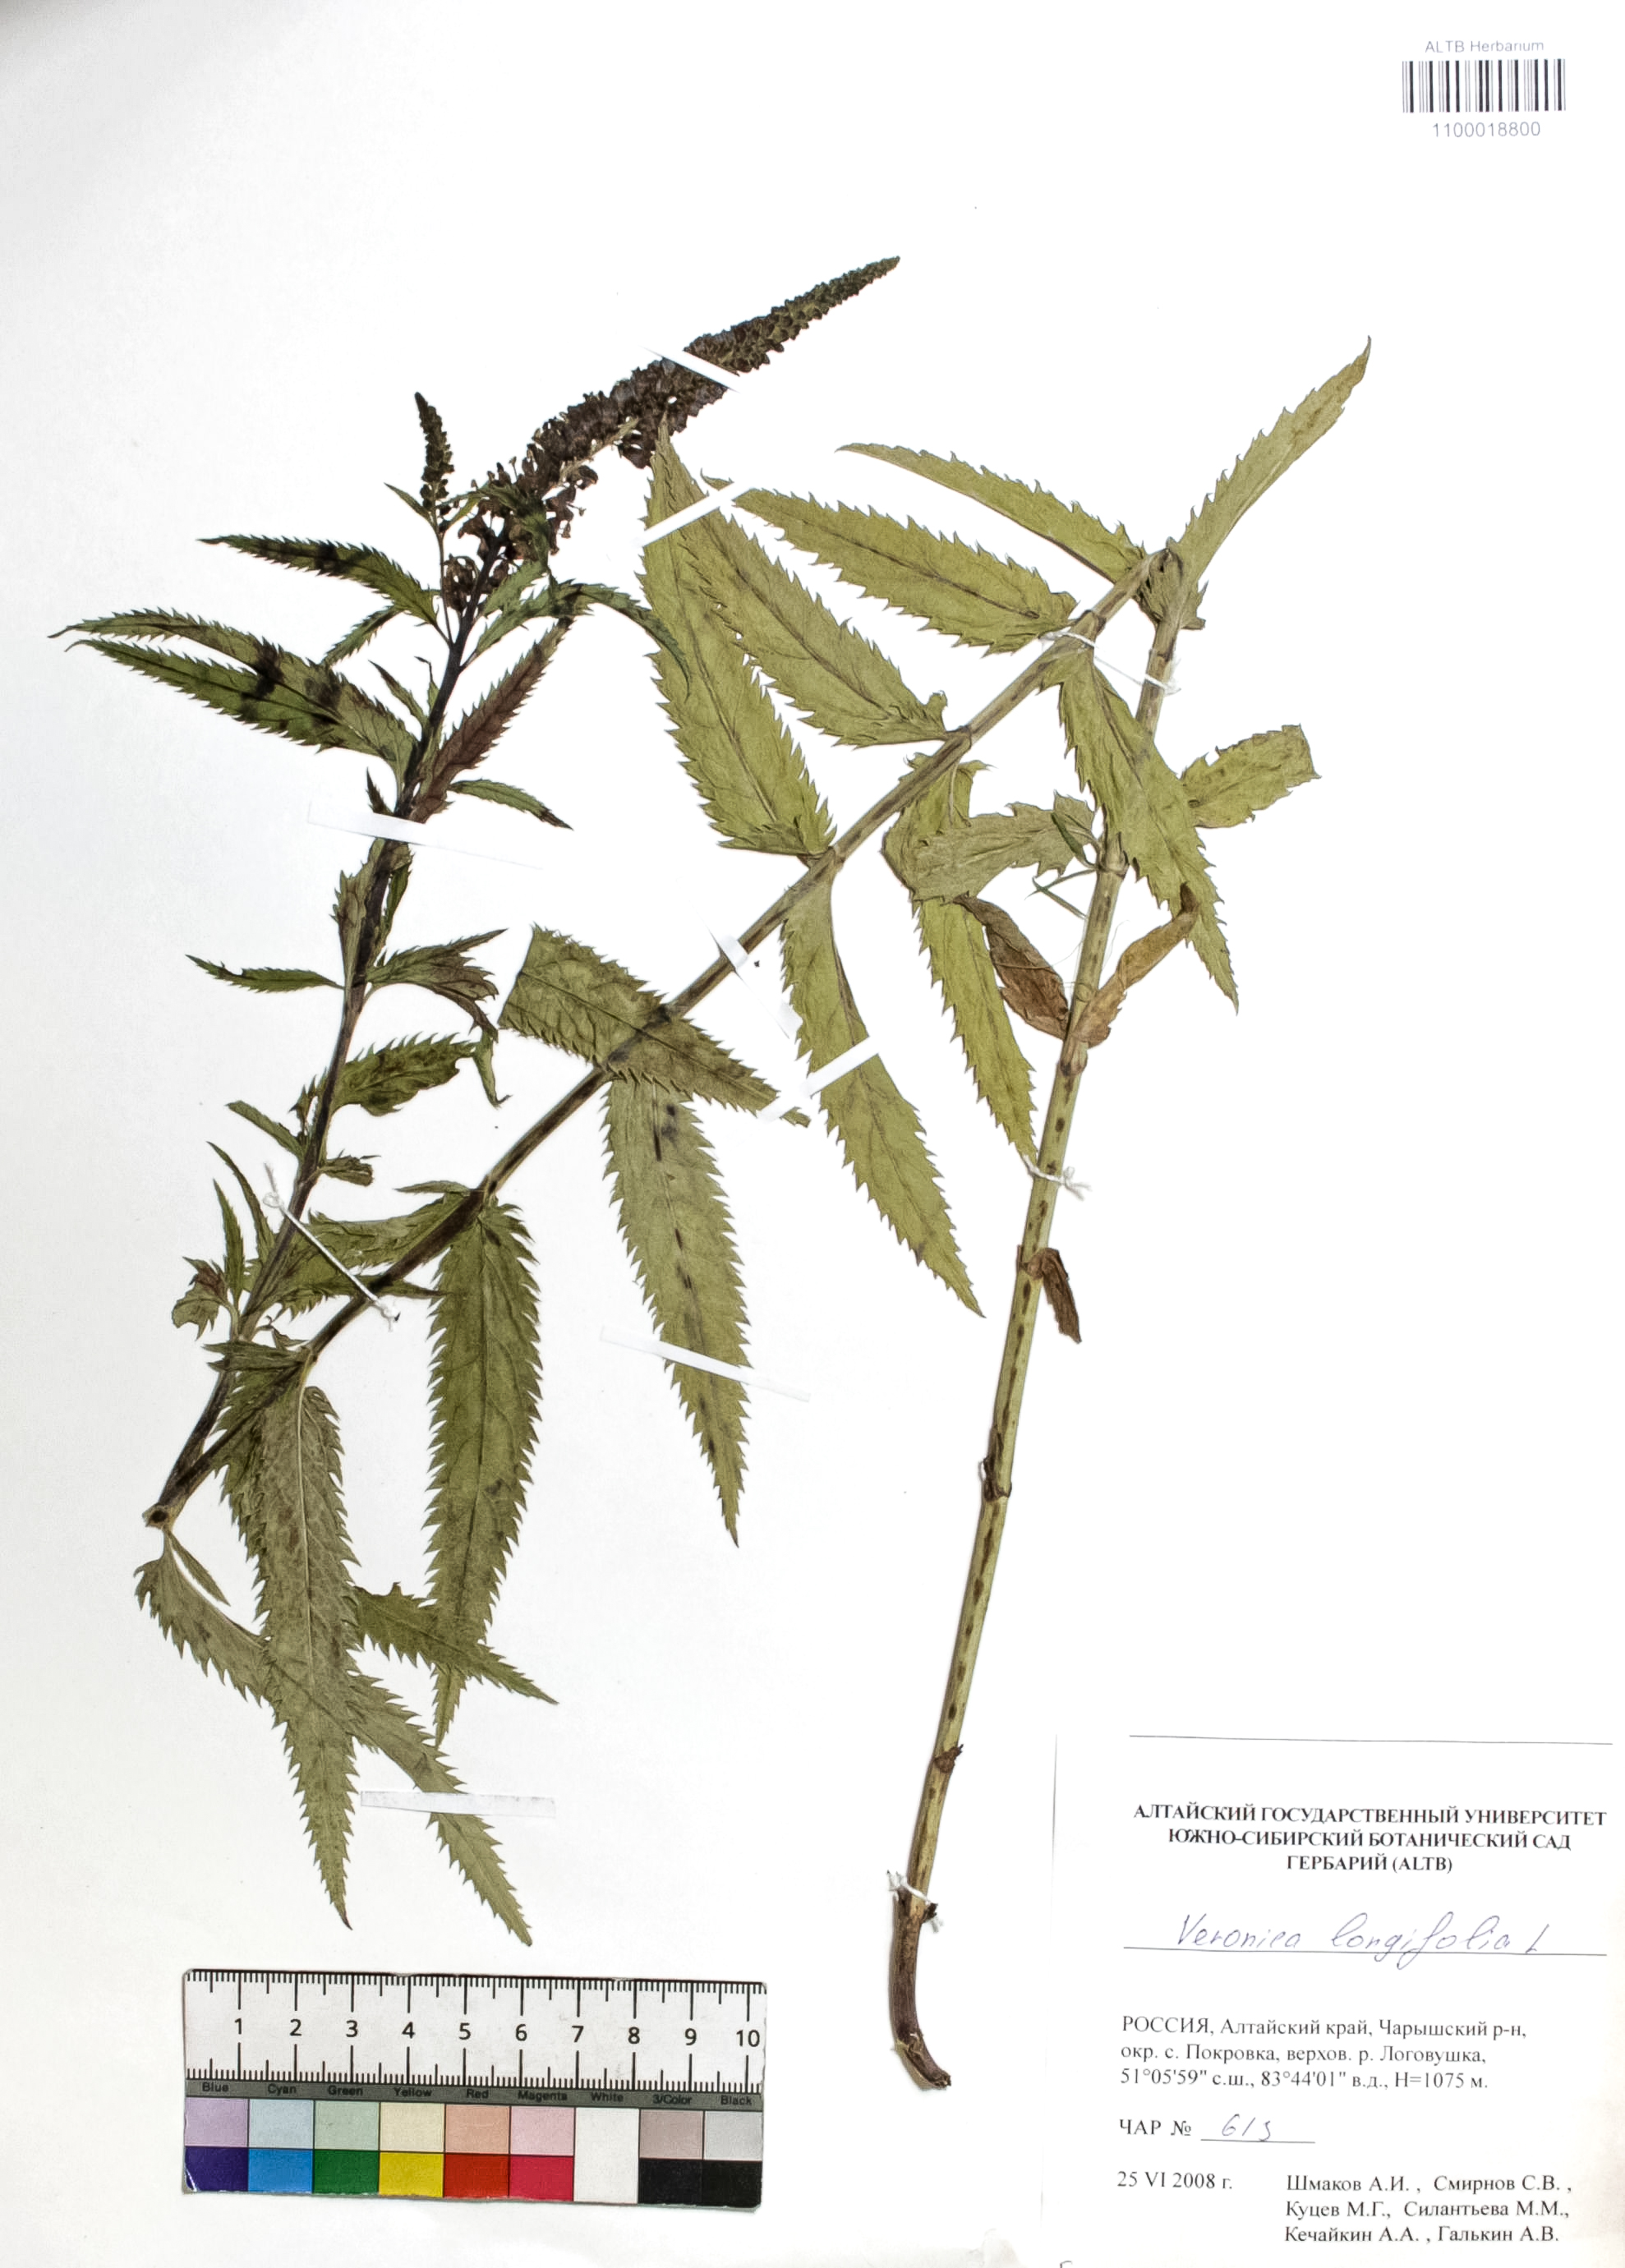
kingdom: Plantae
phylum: Tracheophyta
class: Magnoliopsida
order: Lamiales
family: Plantaginaceae
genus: Veronica
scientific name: Veronica longifolia
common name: Garden speedwell
